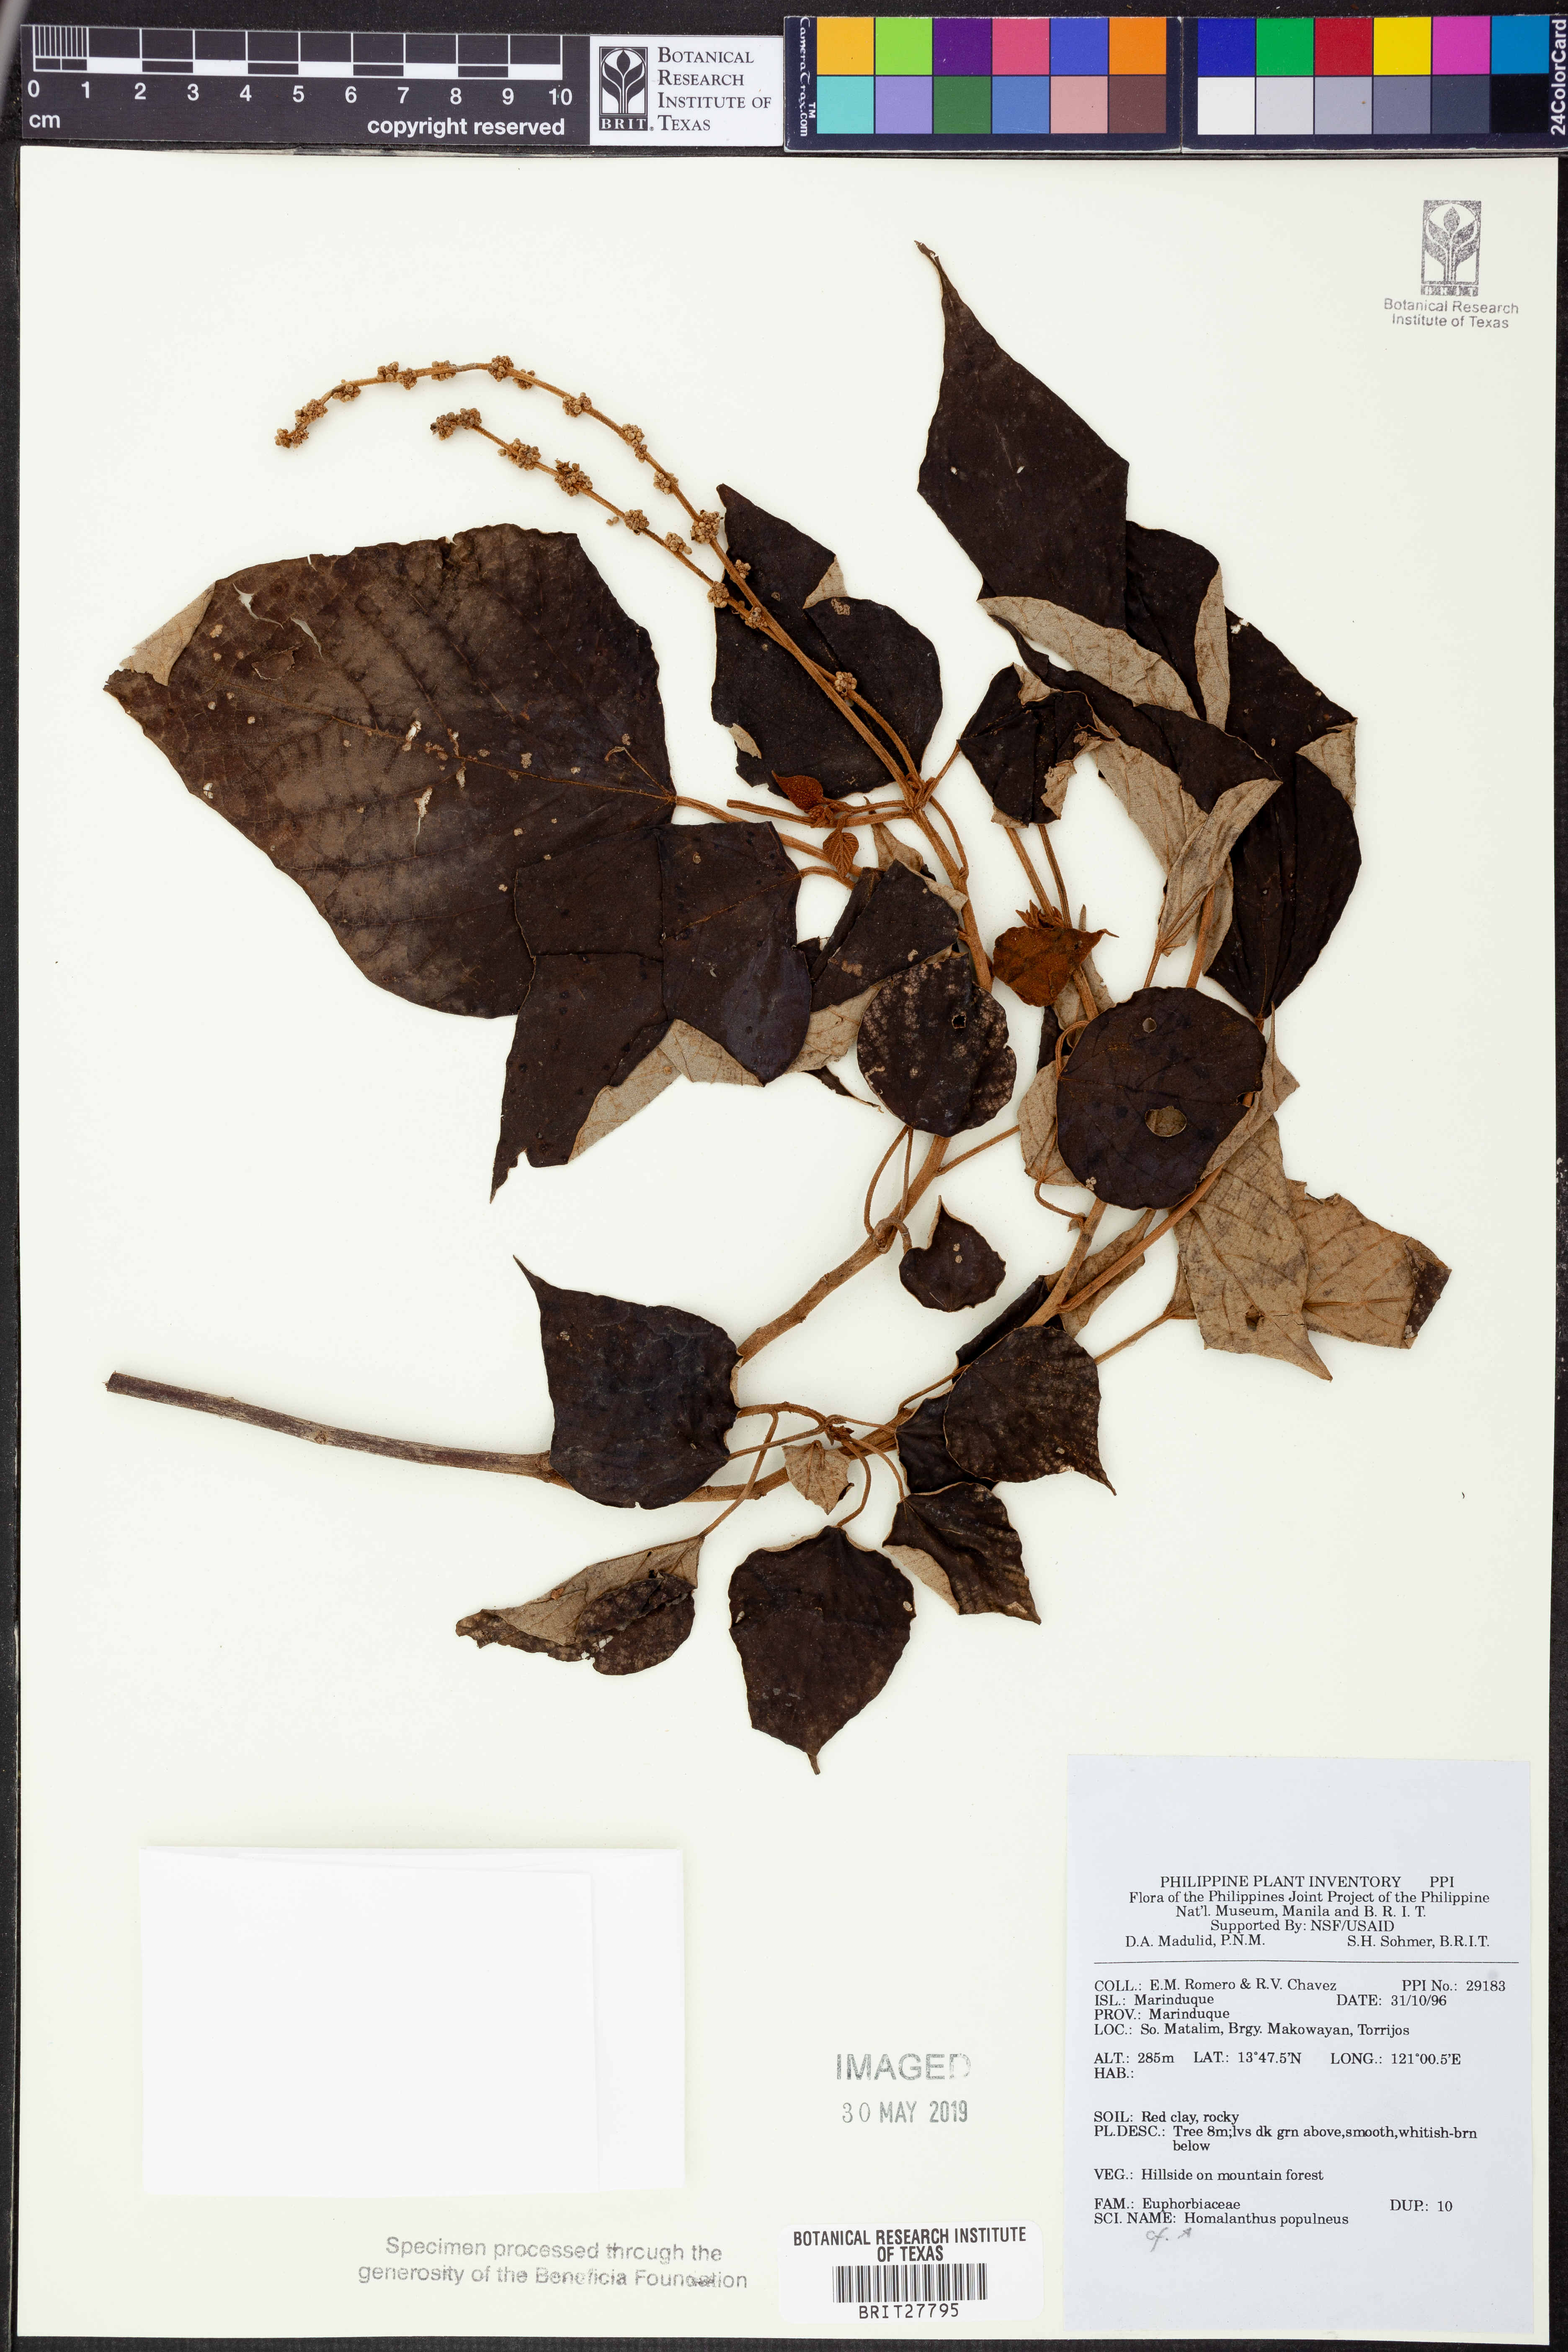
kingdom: Plantae
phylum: Tracheophyta
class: Magnoliopsida
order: Malpighiales
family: Euphorbiaceae
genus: Homalanthus
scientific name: Homalanthus populneus
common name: Spurge
